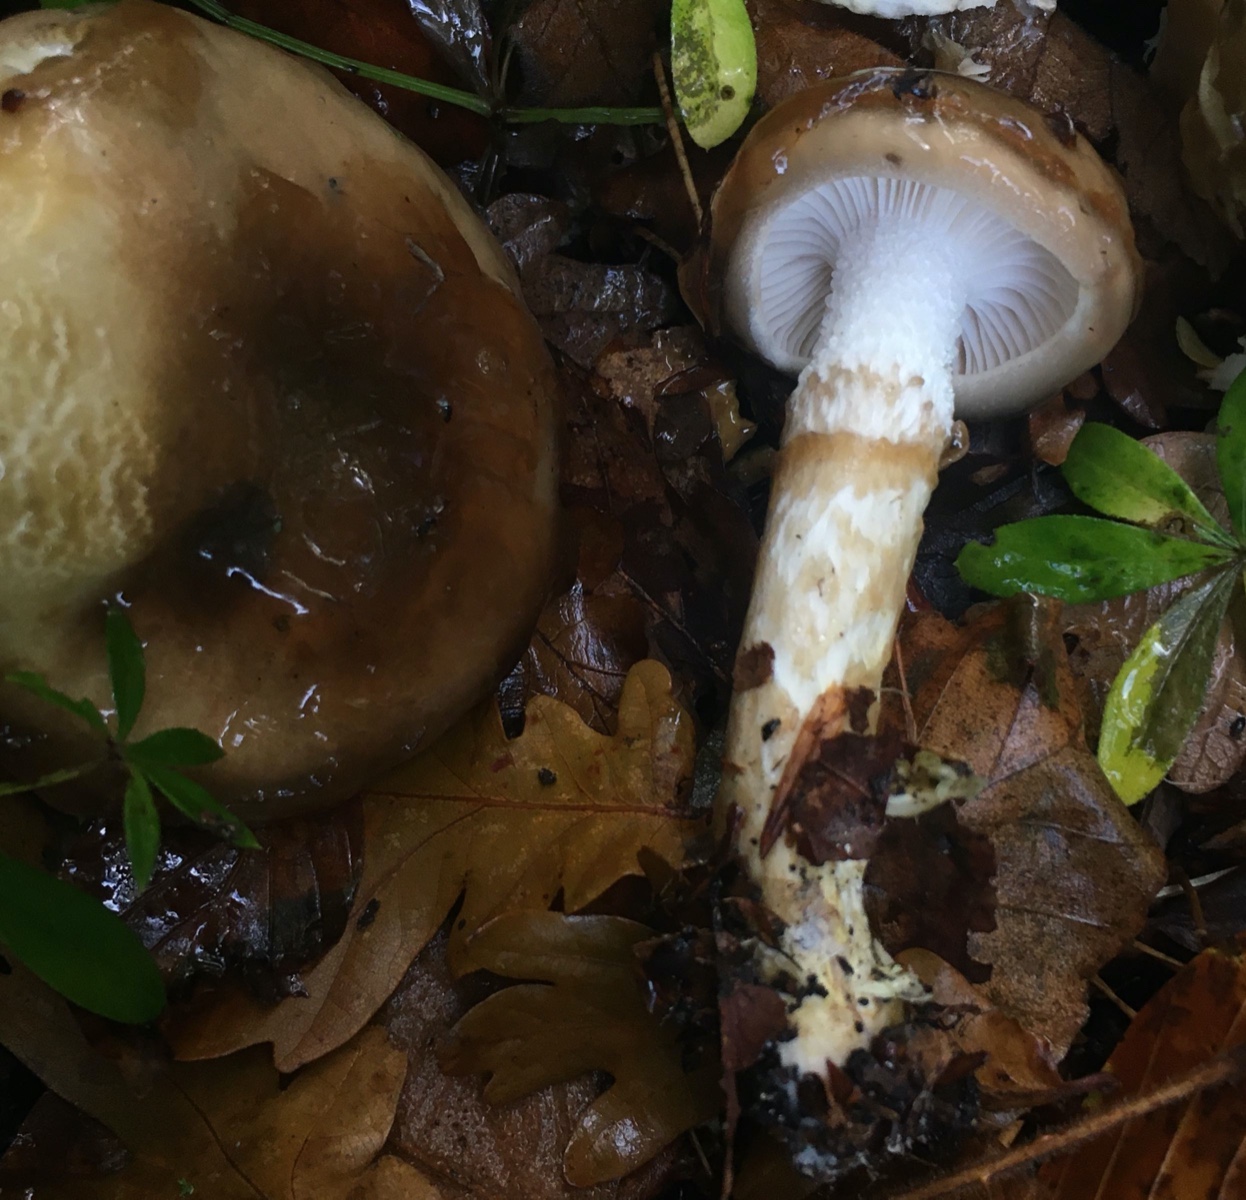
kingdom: Fungi
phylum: Basidiomycota
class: Agaricomycetes
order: Agaricales
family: Hygrophoraceae
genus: Hygrophorus
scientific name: Hygrophorus glutinifer
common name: tvefarvet sneglehat
